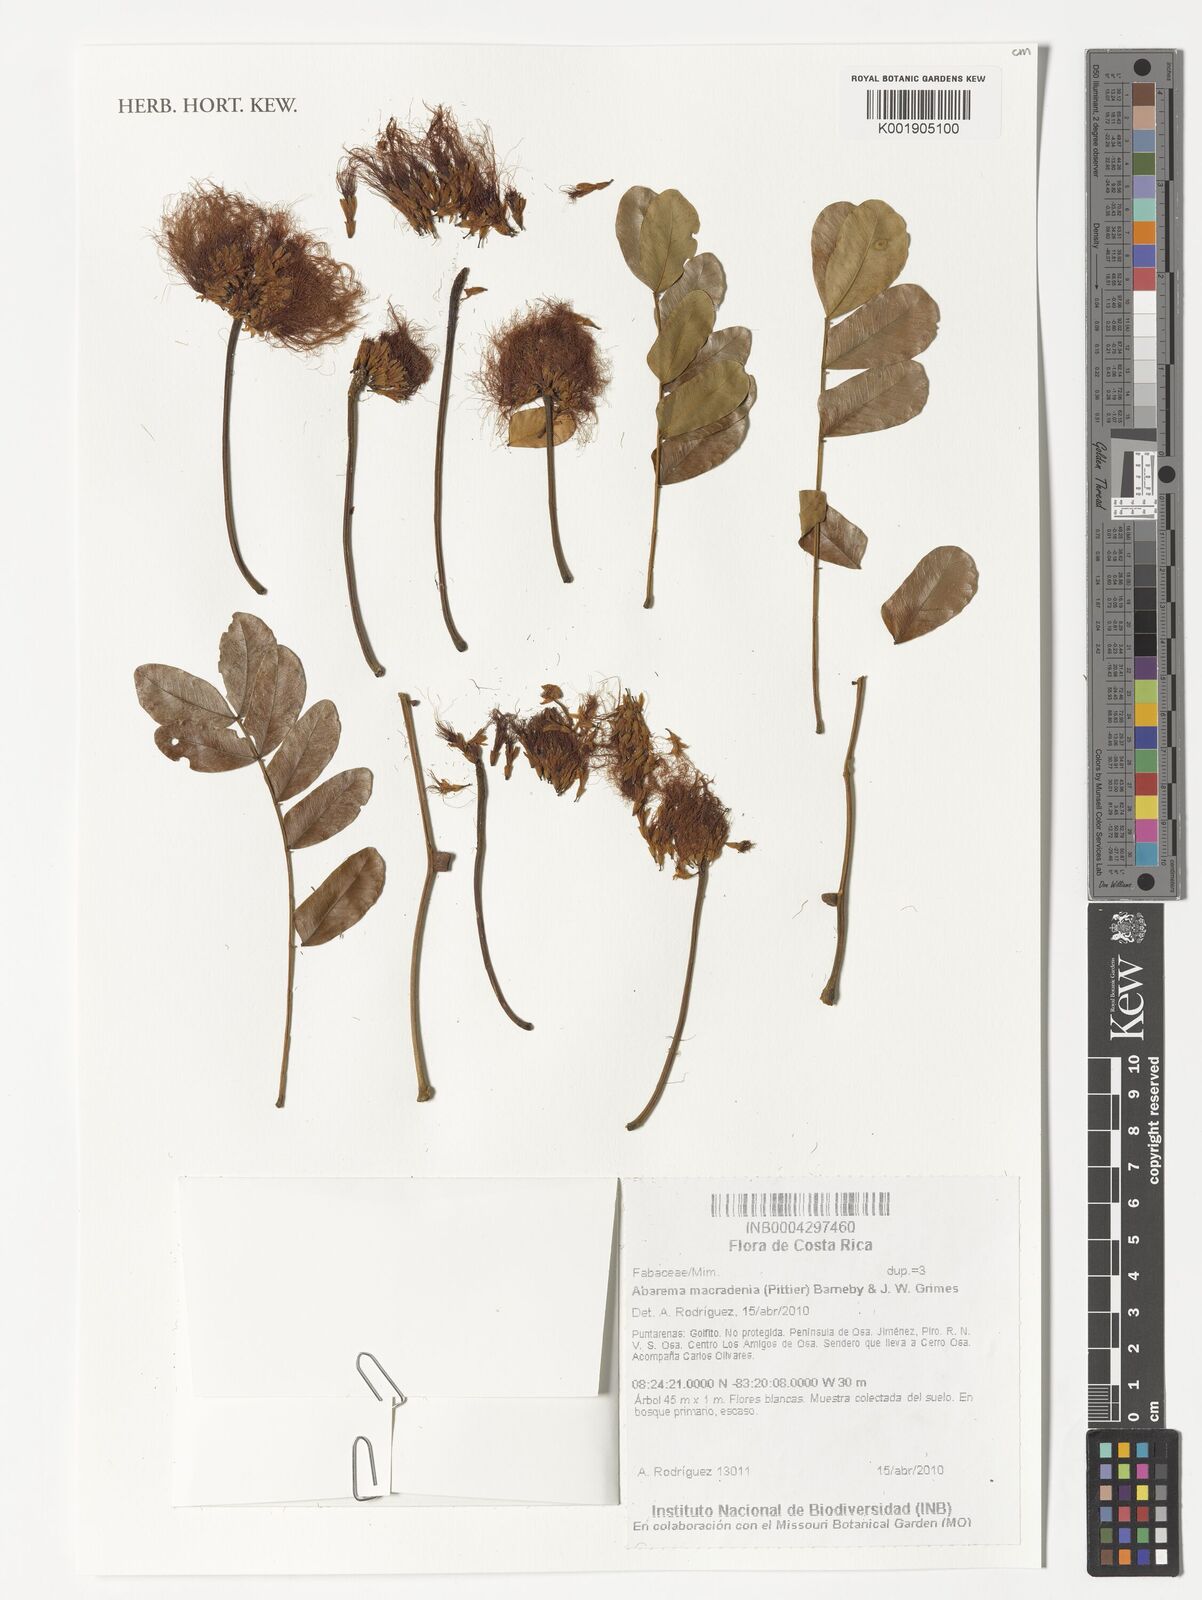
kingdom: Plantae
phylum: Tracheophyta
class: Magnoliopsida
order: Fabales
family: Fabaceae
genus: Jupunba
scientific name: Jupunba macradenia
